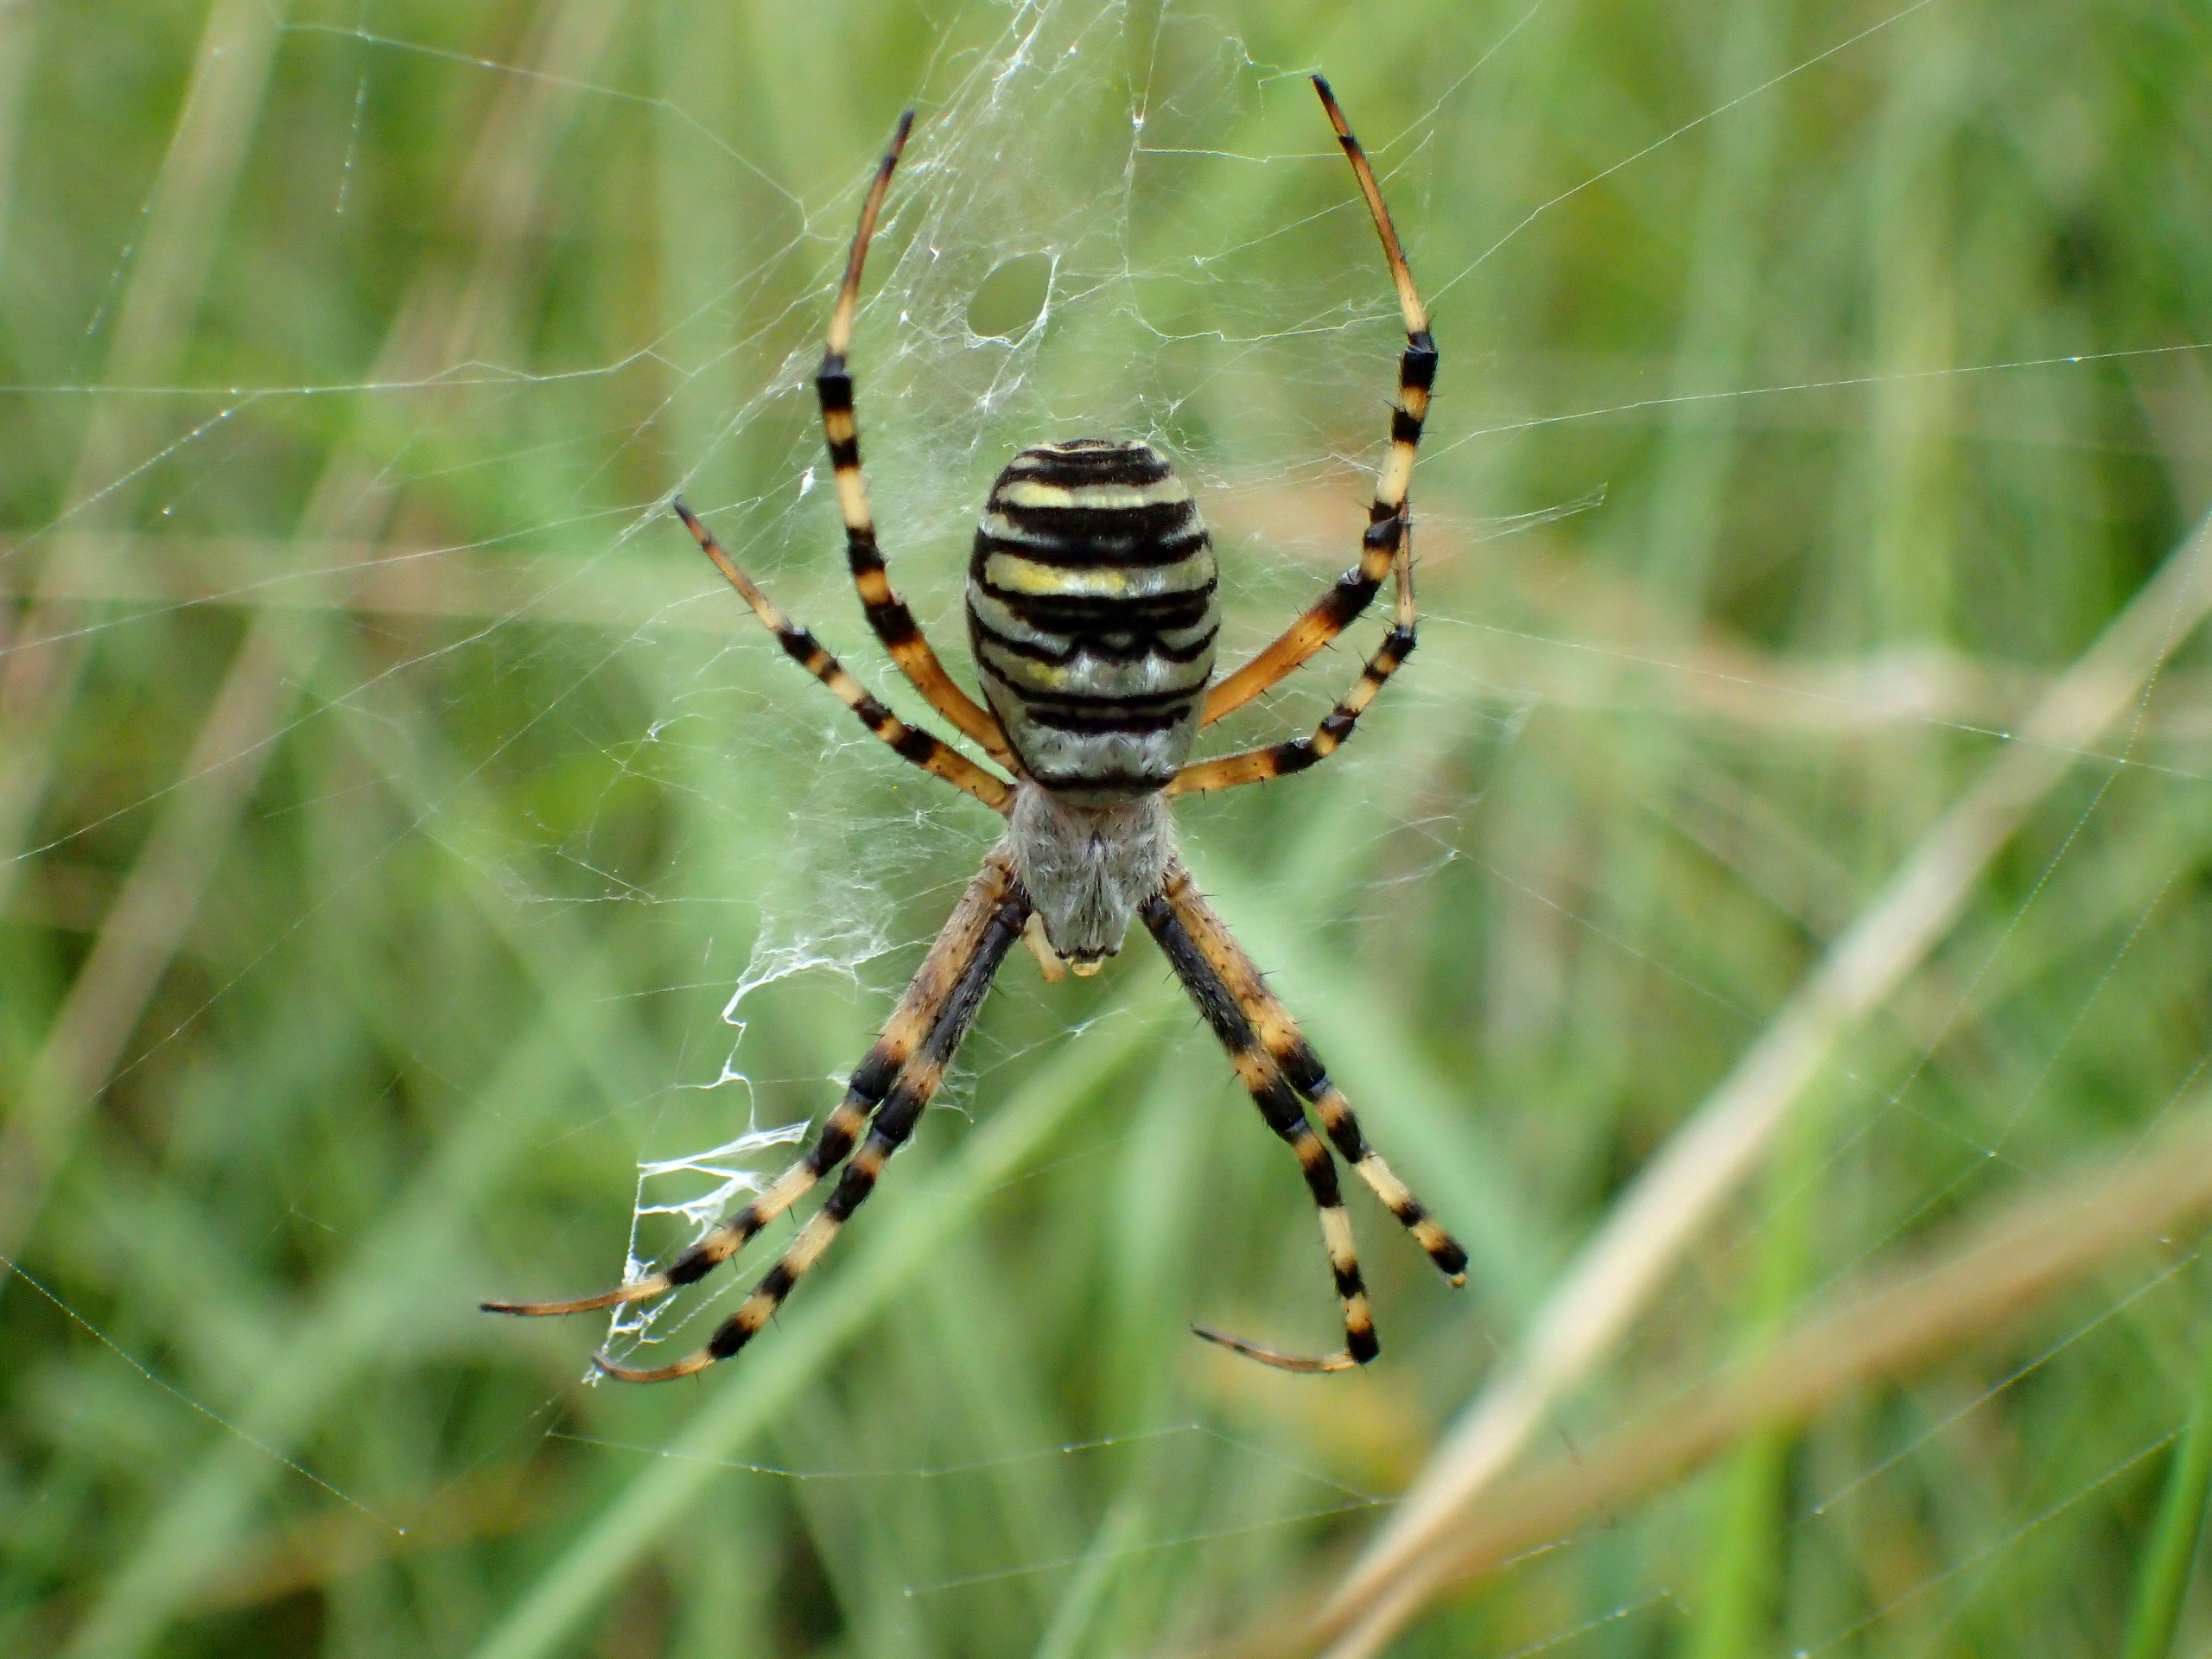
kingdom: Animalia
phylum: Arthropoda
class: Arachnida
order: Araneae
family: Araneidae
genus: Argiope
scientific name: Argiope bruennichi
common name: Hvepseedderkop
